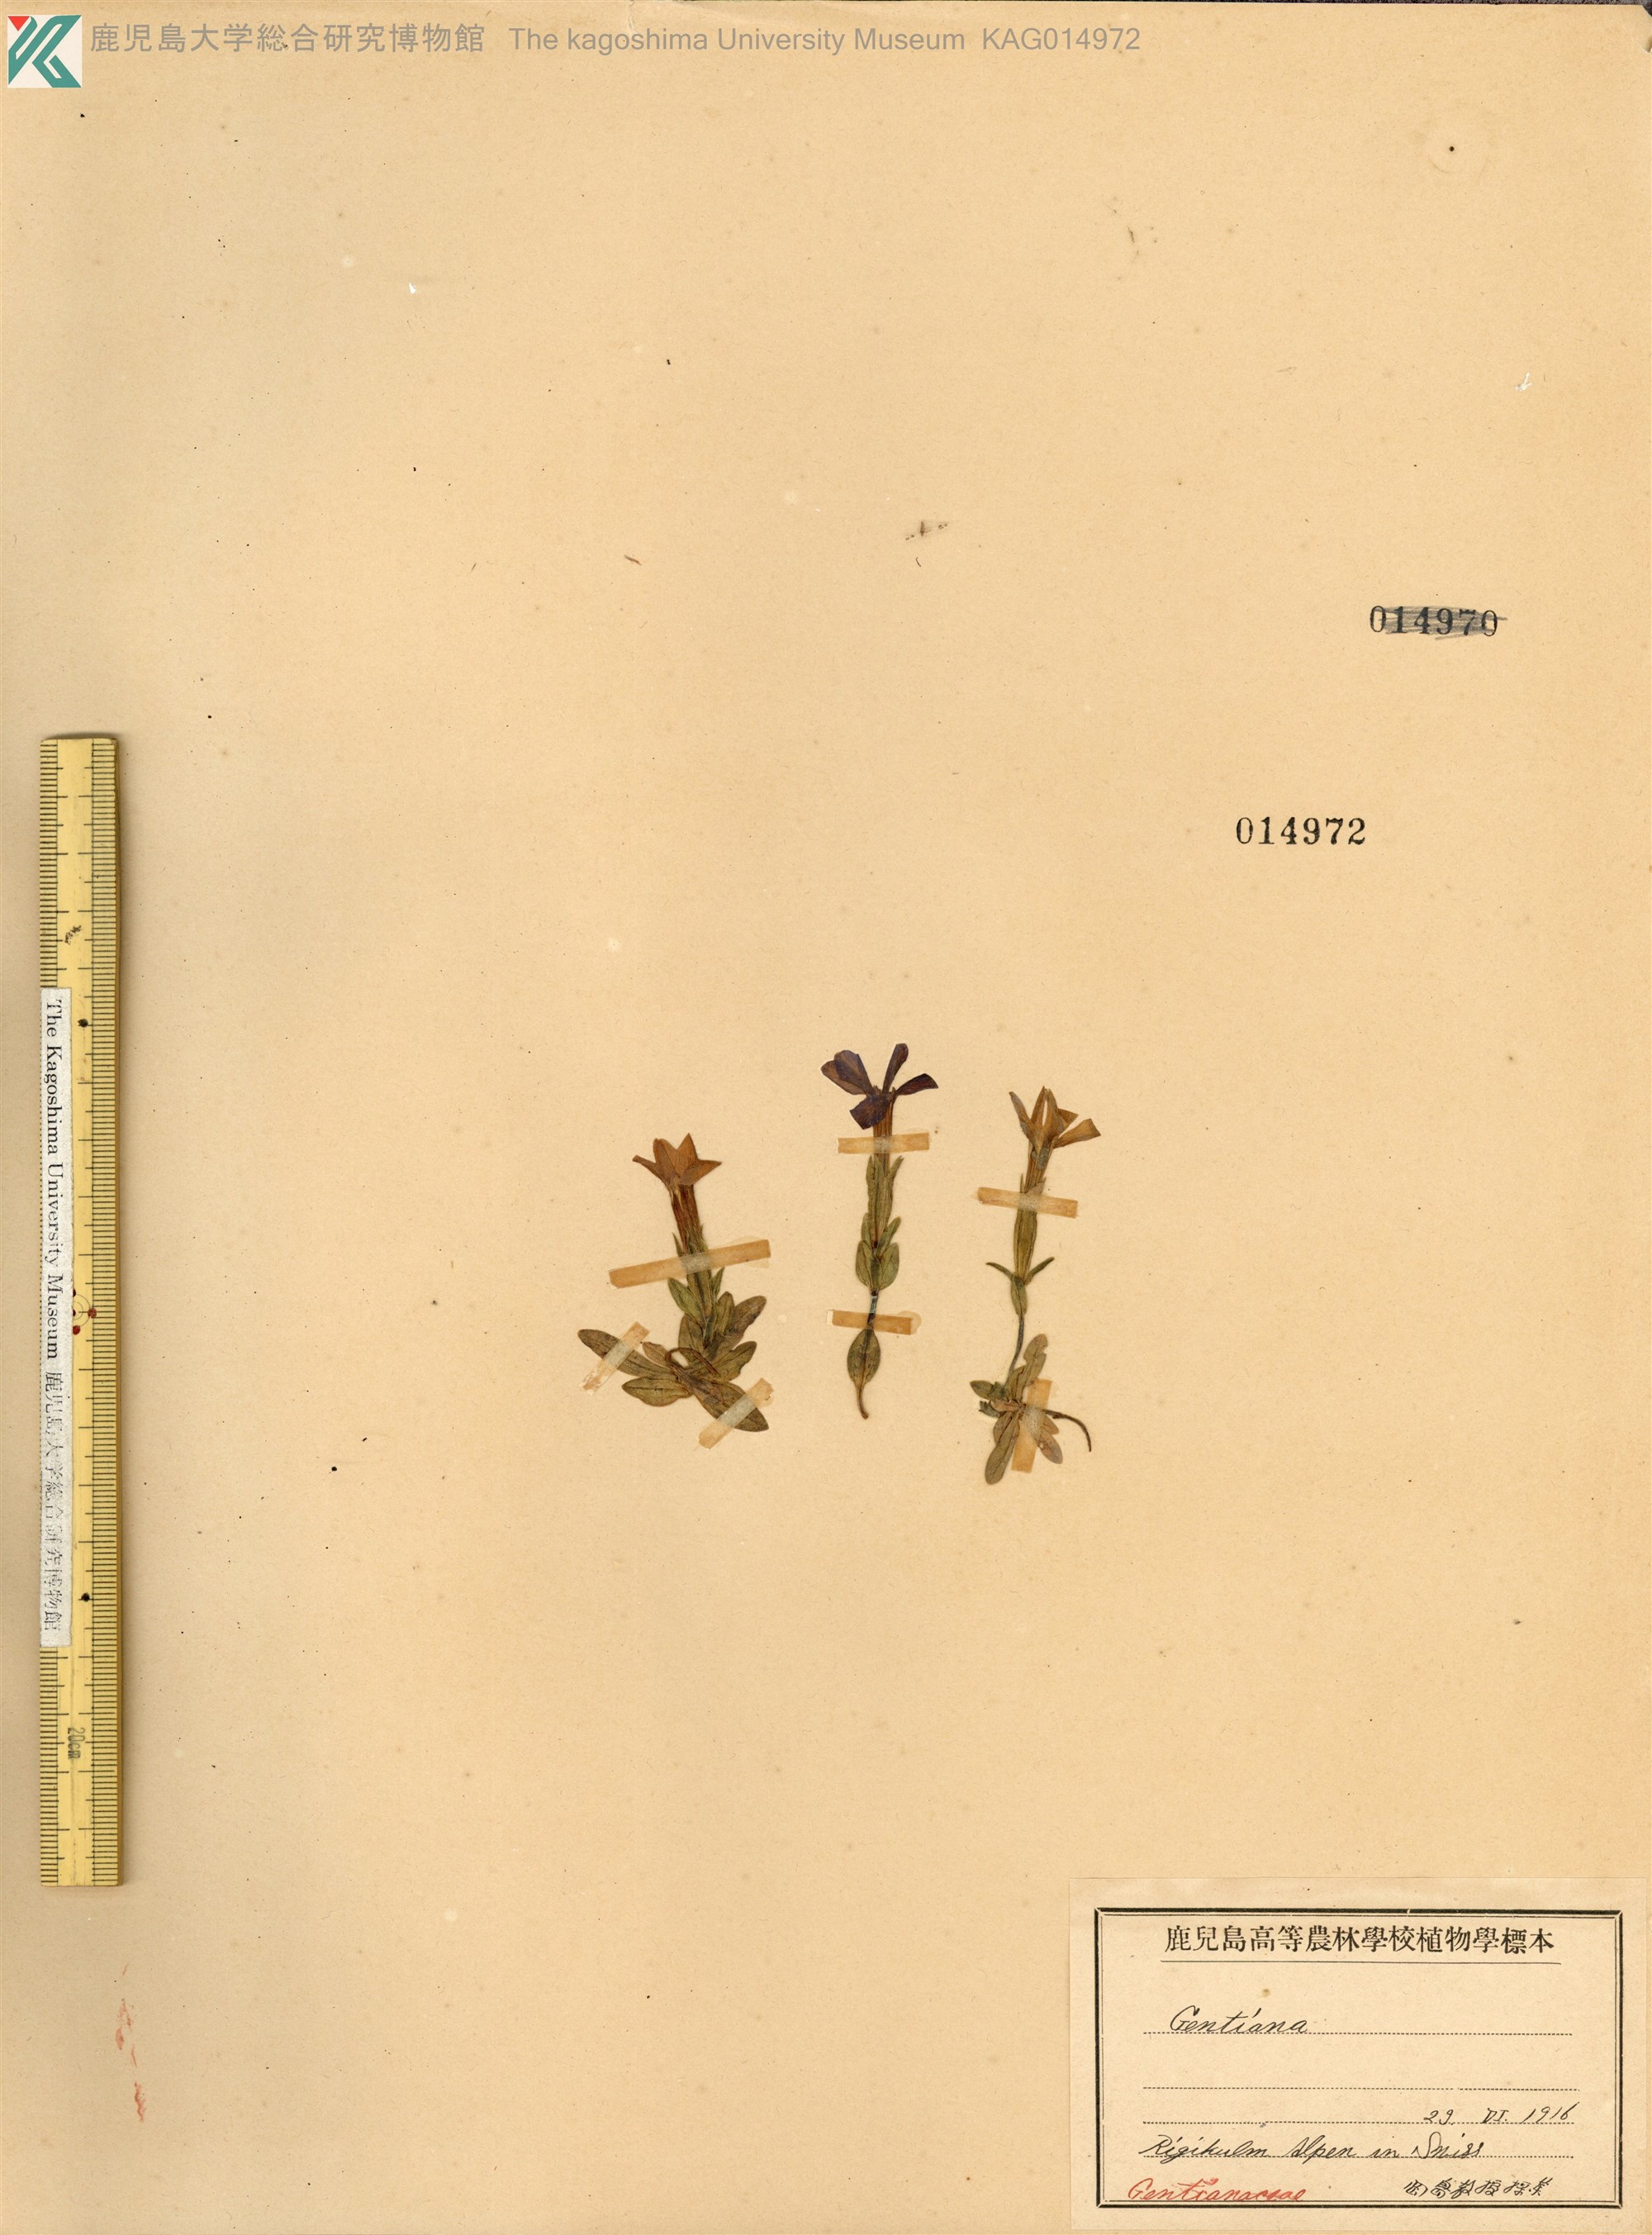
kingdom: Plantae
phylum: Tracheophyta
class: Magnoliopsida
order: Gentianales
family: Gentianaceae
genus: Gentiana
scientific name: Gentiana verna
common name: Spring gentian
